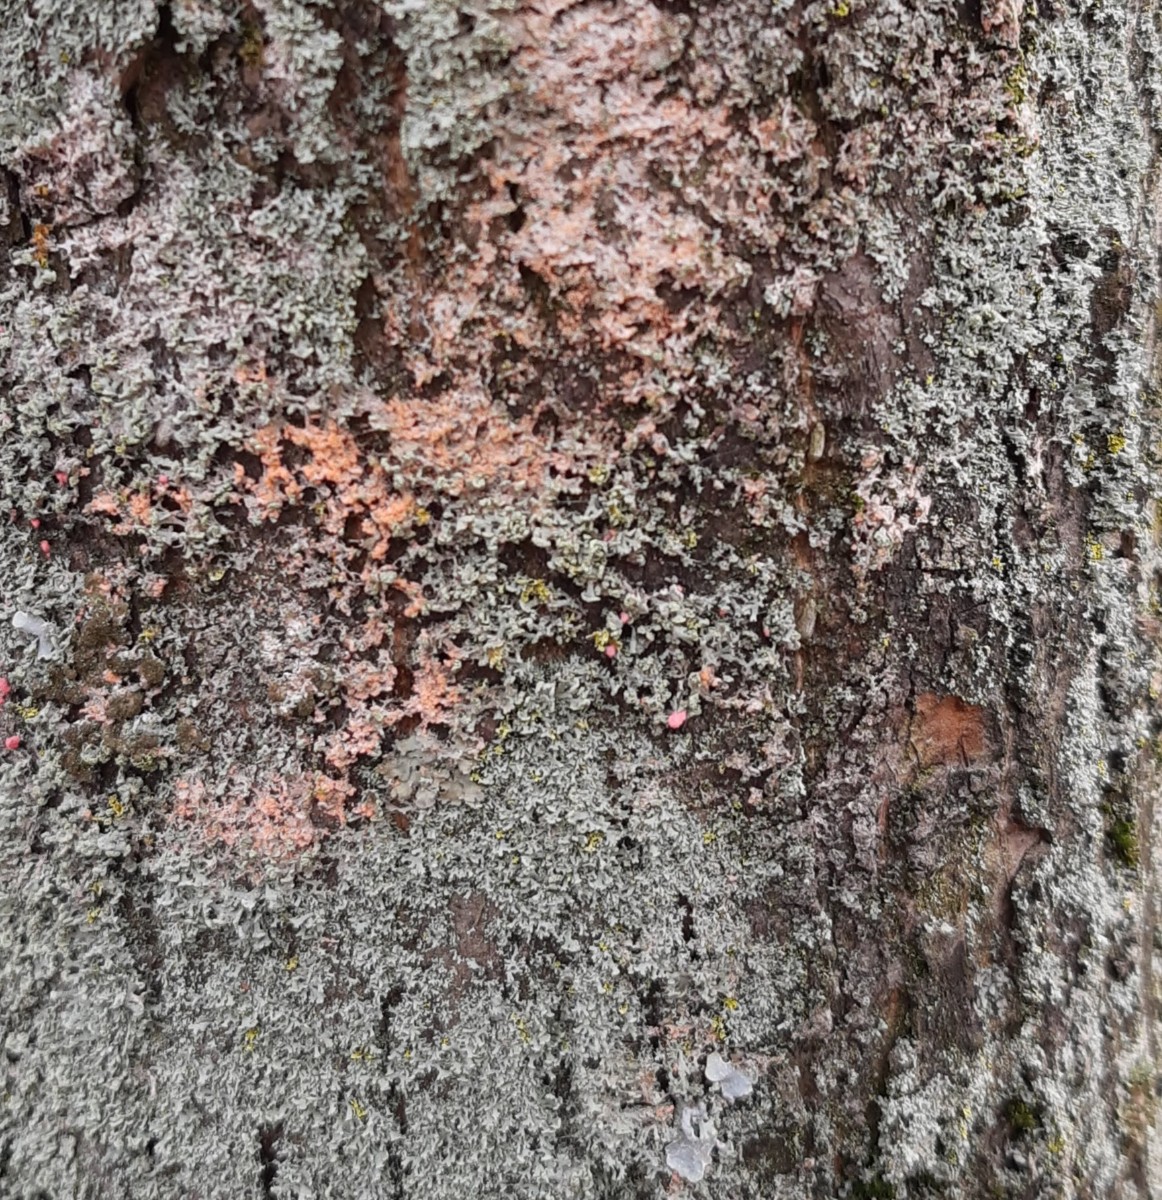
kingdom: Fungi
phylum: Basidiomycota
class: Agaricomycetes
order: Corticiales
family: Corticiaceae
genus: Erythricium
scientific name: Erythricium aurantiacum
